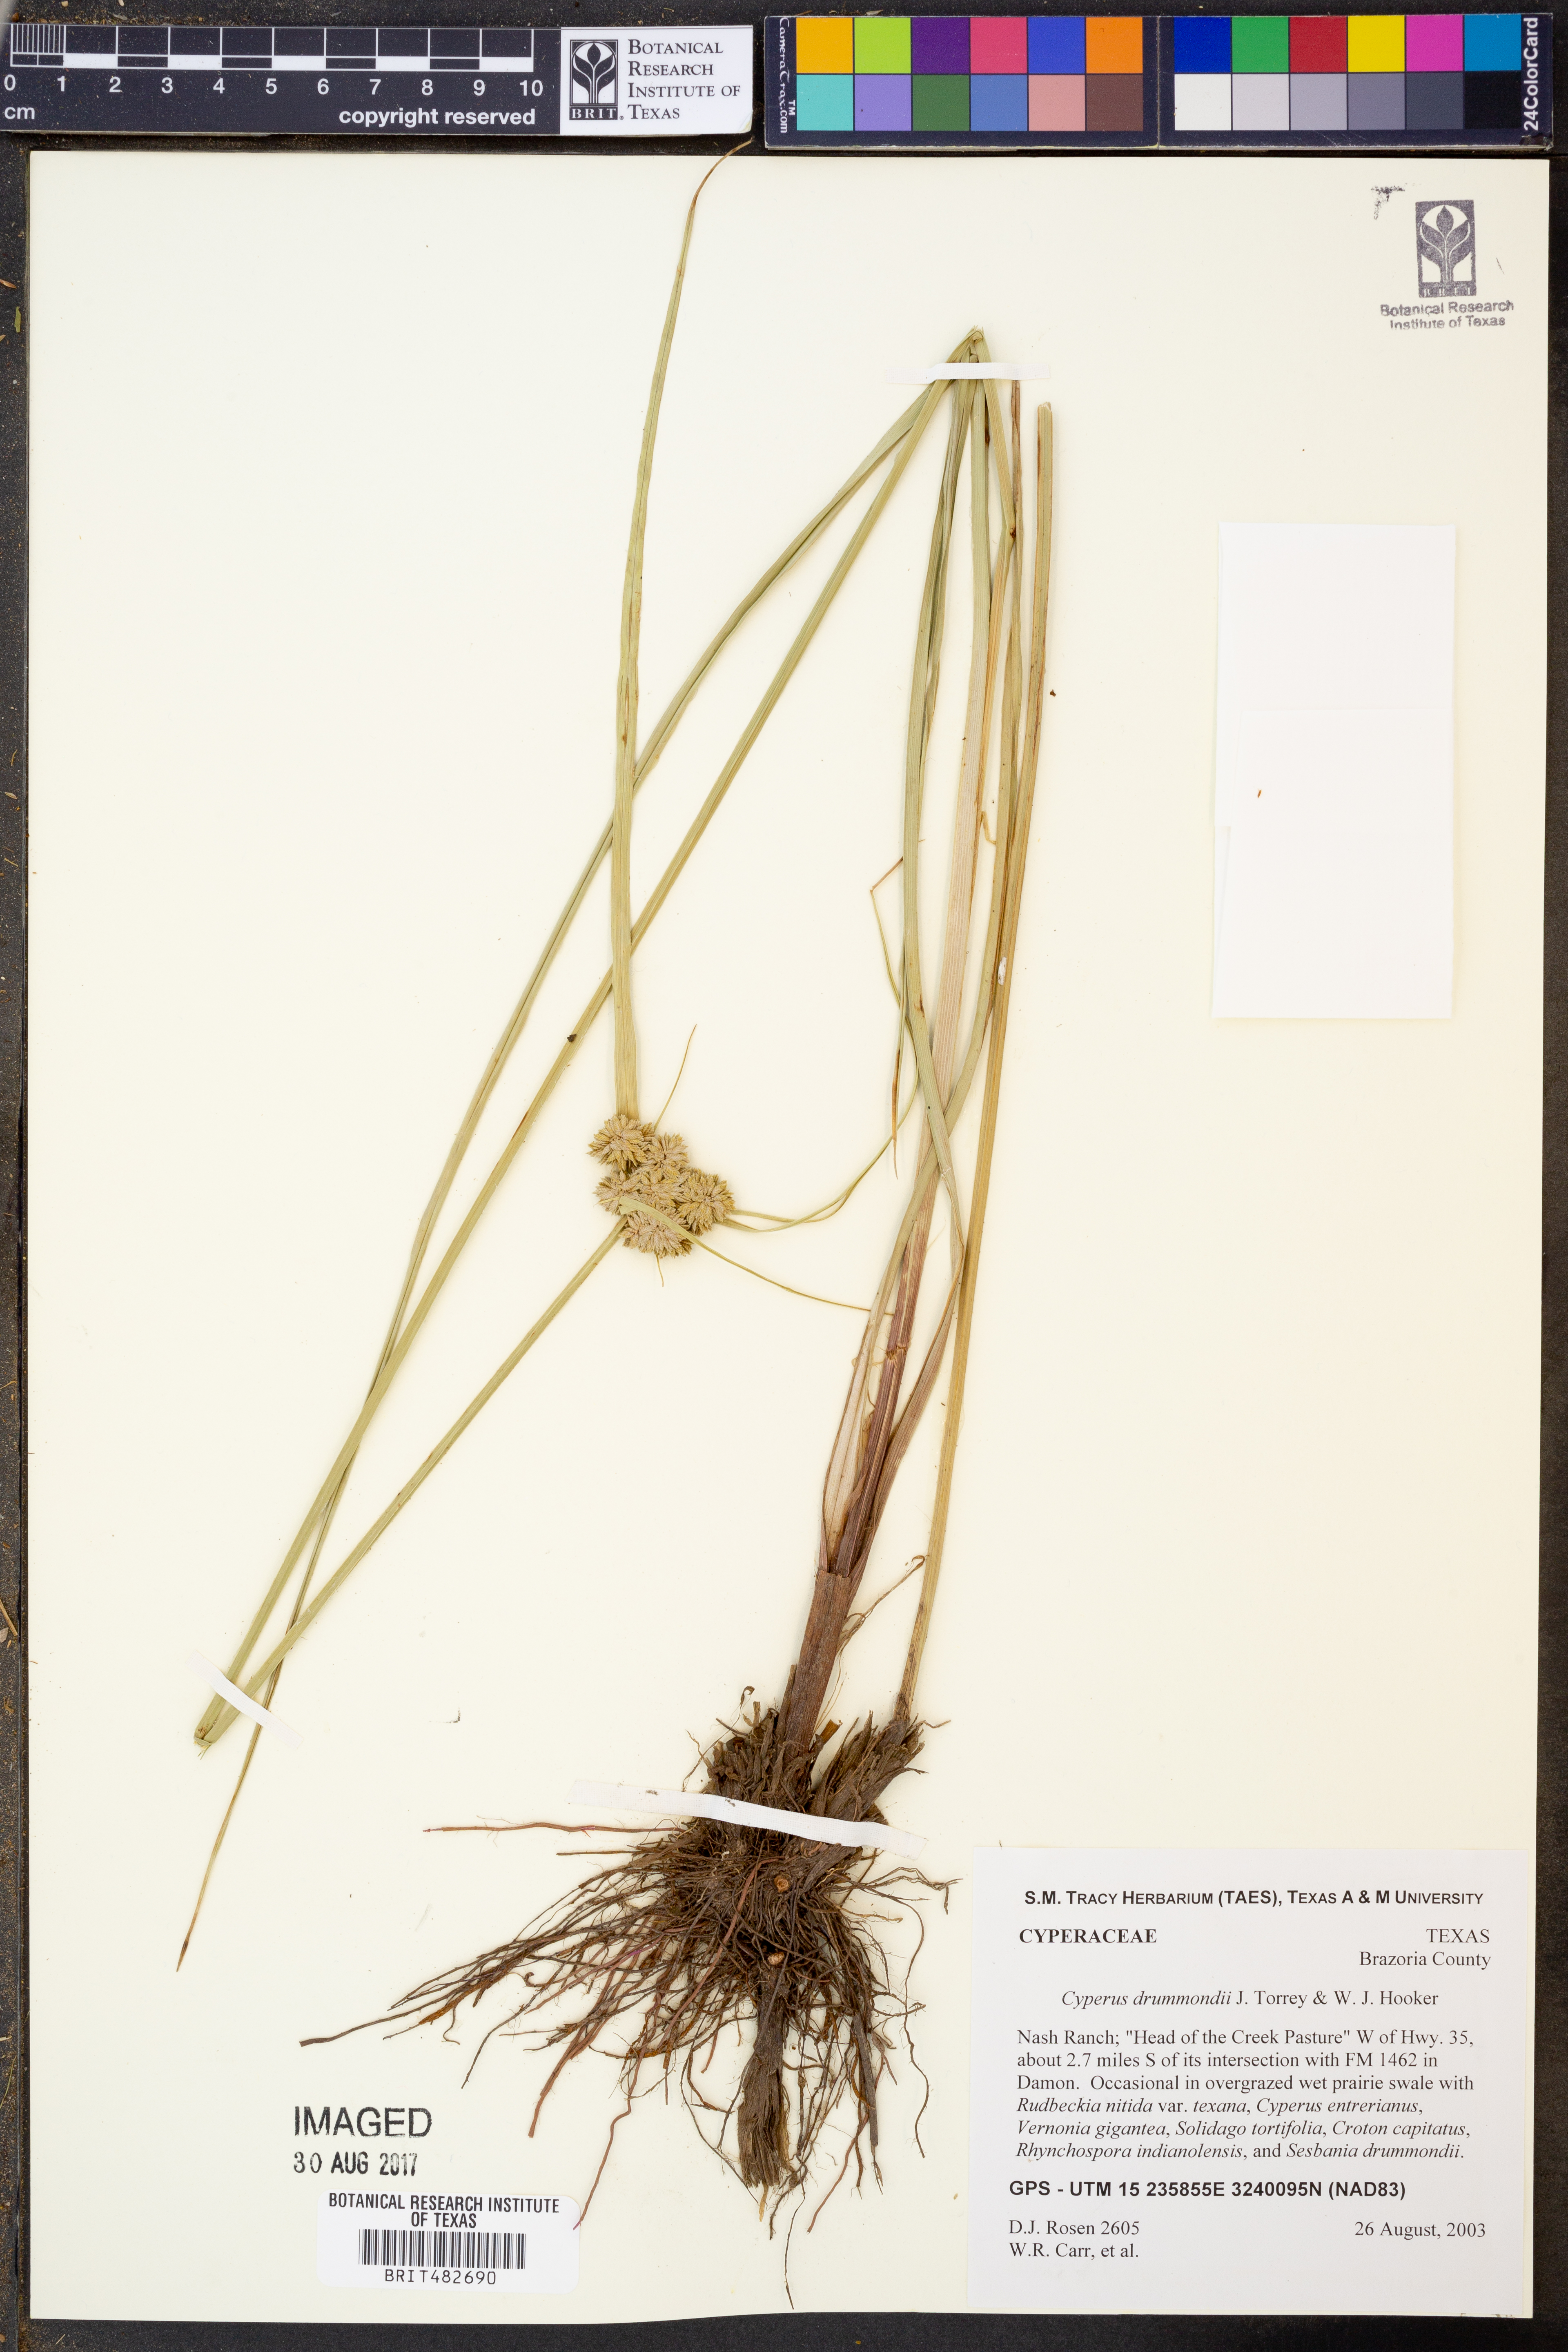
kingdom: Plantae
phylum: Tracheophyta
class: Liliopsida
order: Poales
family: Cyperaceae
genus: Cyperus
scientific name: Cyperus drummondii
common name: Green flat sedge
